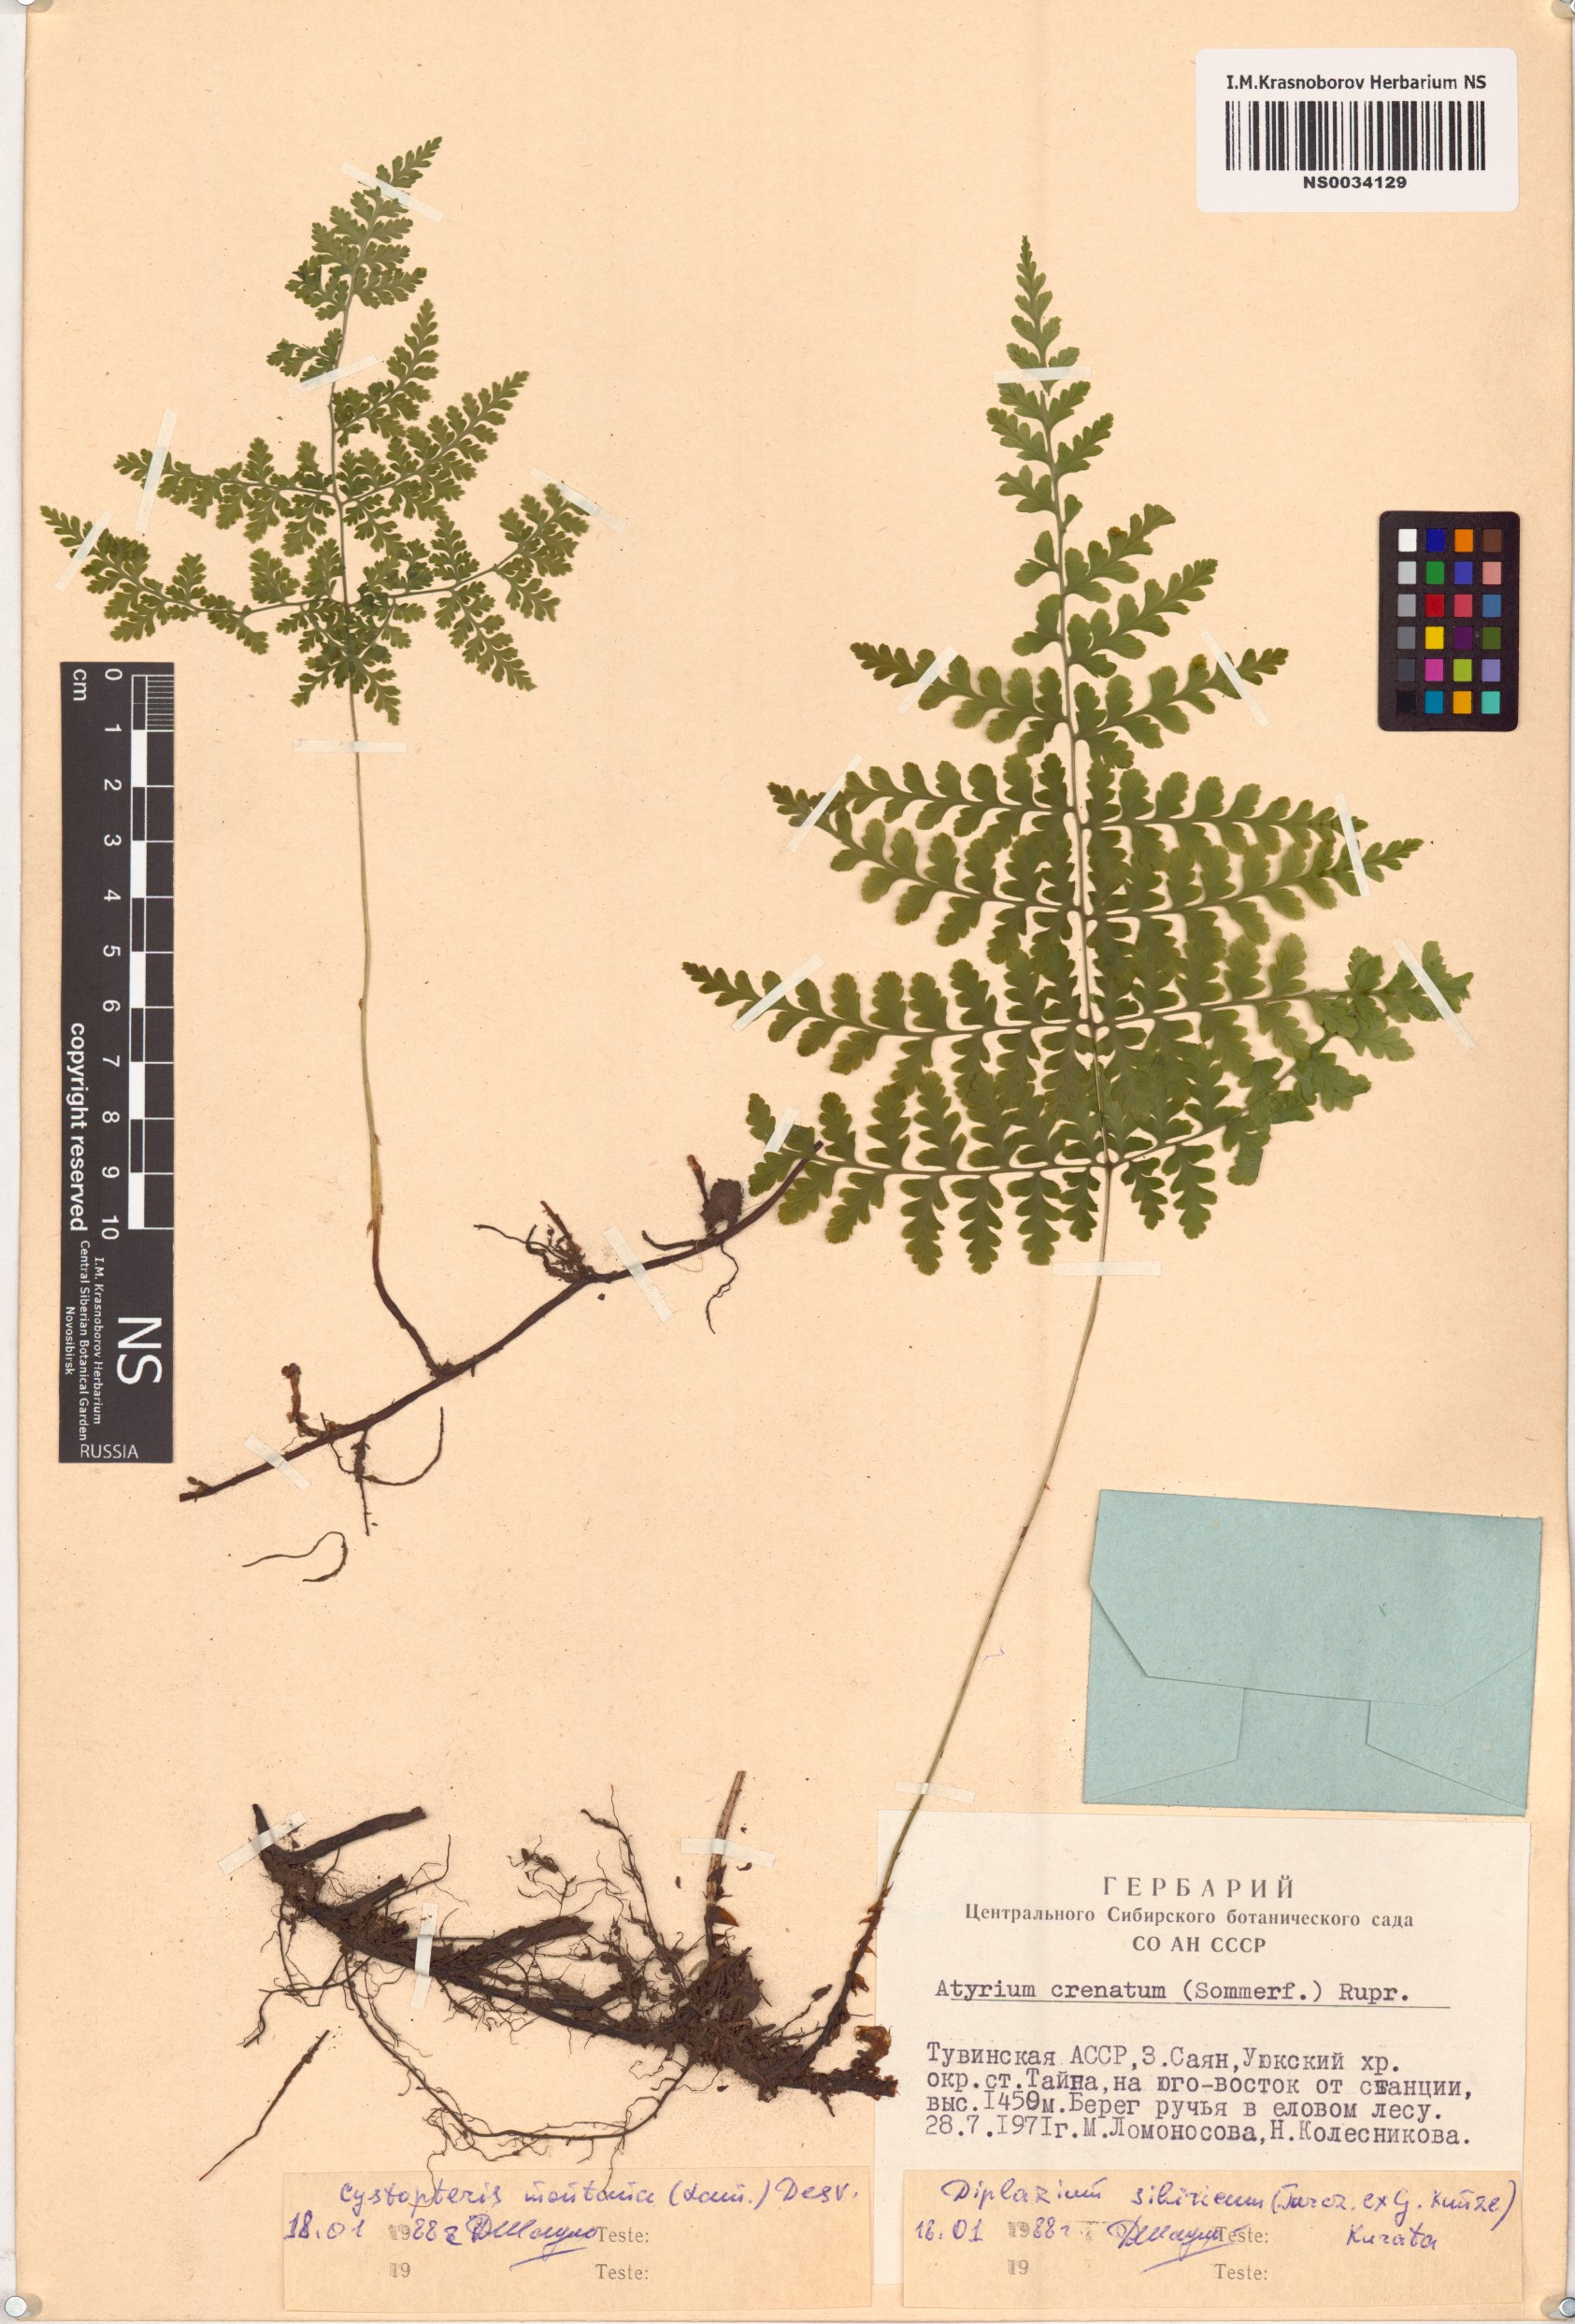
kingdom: Plantae
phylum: Tracheophyta
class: Polypodiopsida
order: Polypodiales
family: Cystopteridaceae
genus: Cystopteris
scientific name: Cystopteris montana
